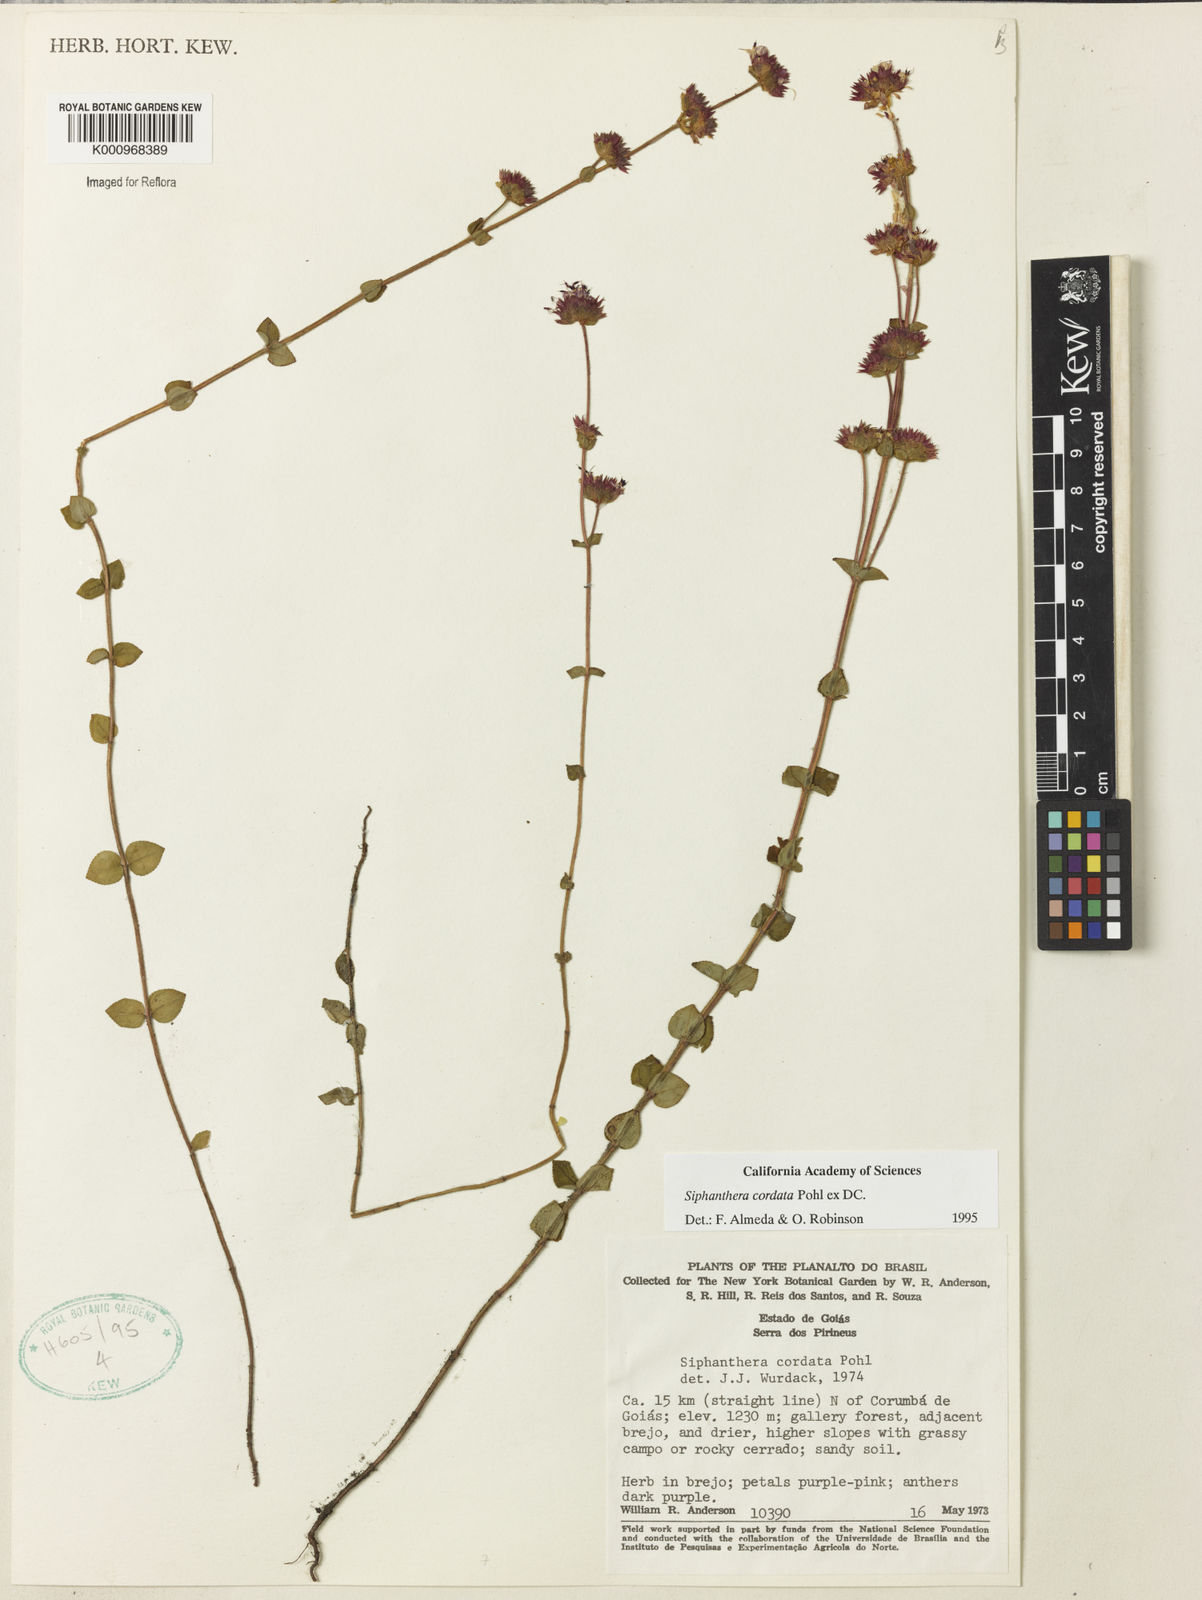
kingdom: Plantae
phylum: Tracheophyta
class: Magnoliopsida
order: Myrtales
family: Melastomataceae
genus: Siphanthera
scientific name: Siphanthera
